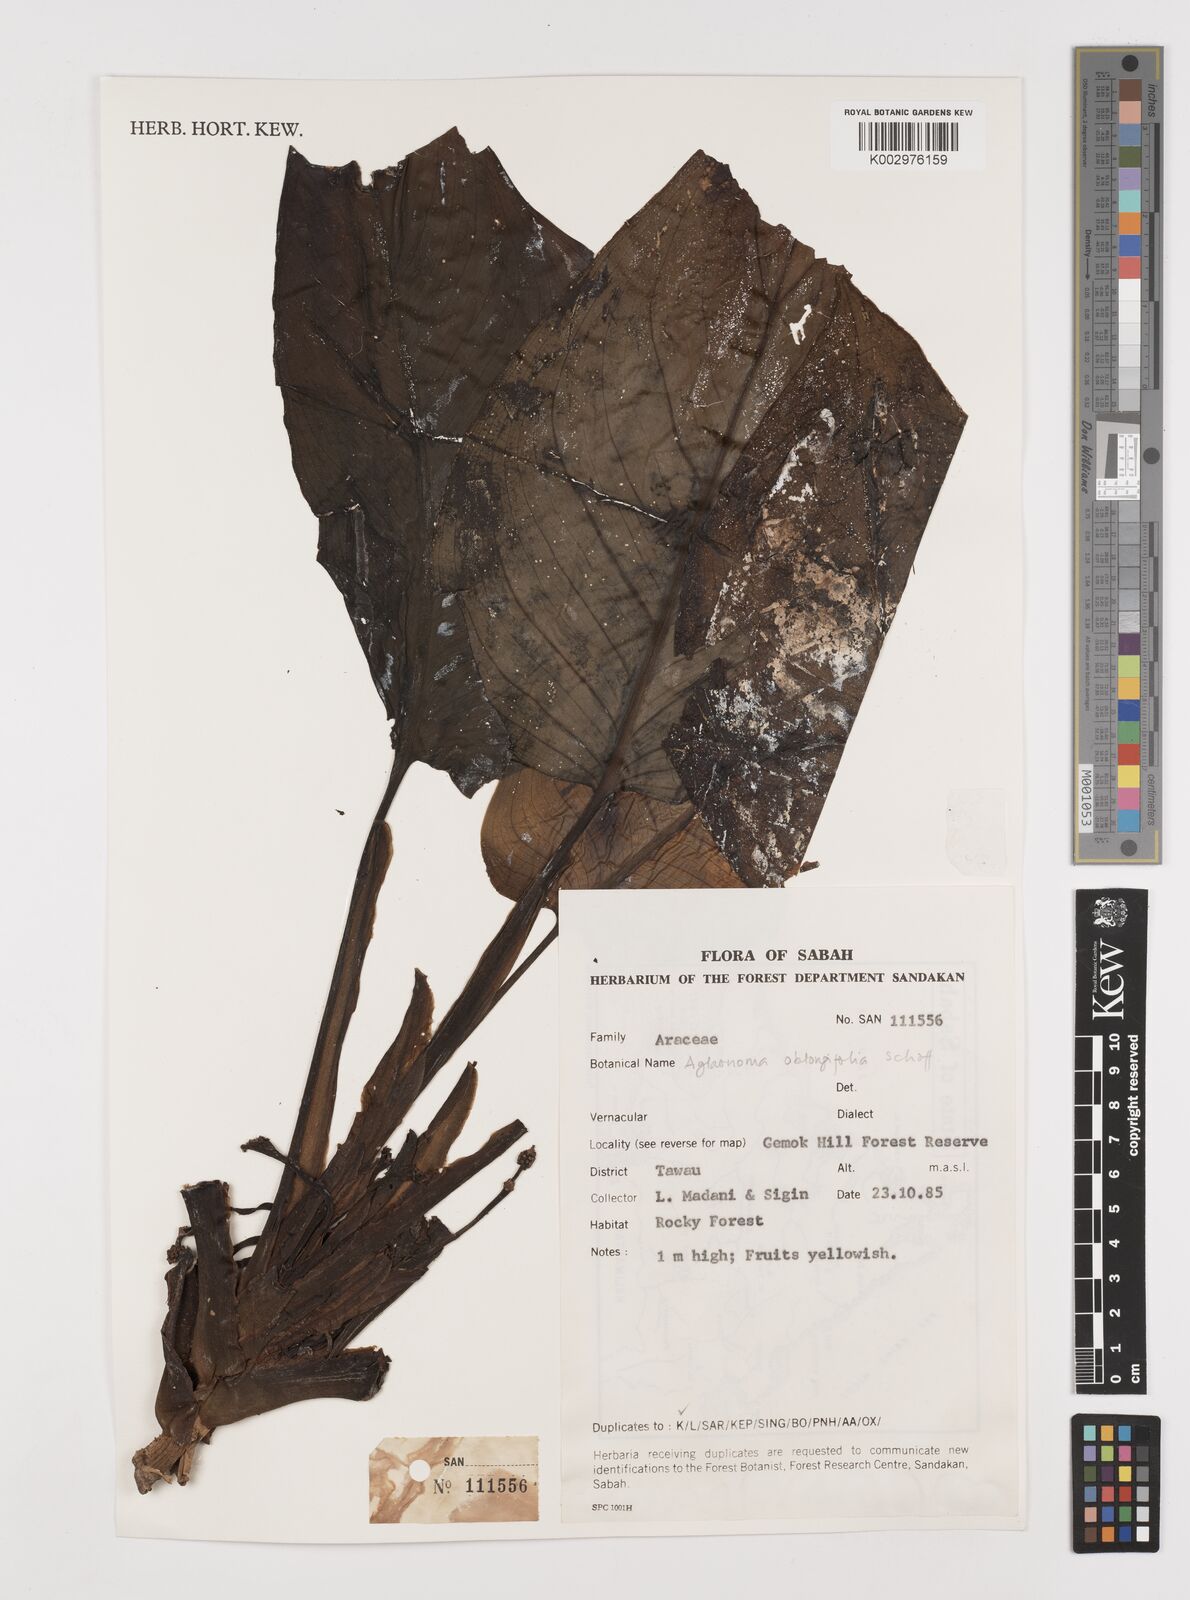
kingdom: Plantae
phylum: Tracheophyta
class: Liliopsida
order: Alismatales
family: Araceae
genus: Aglaonema
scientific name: Aglaonema simplex
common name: Malayan-sword
